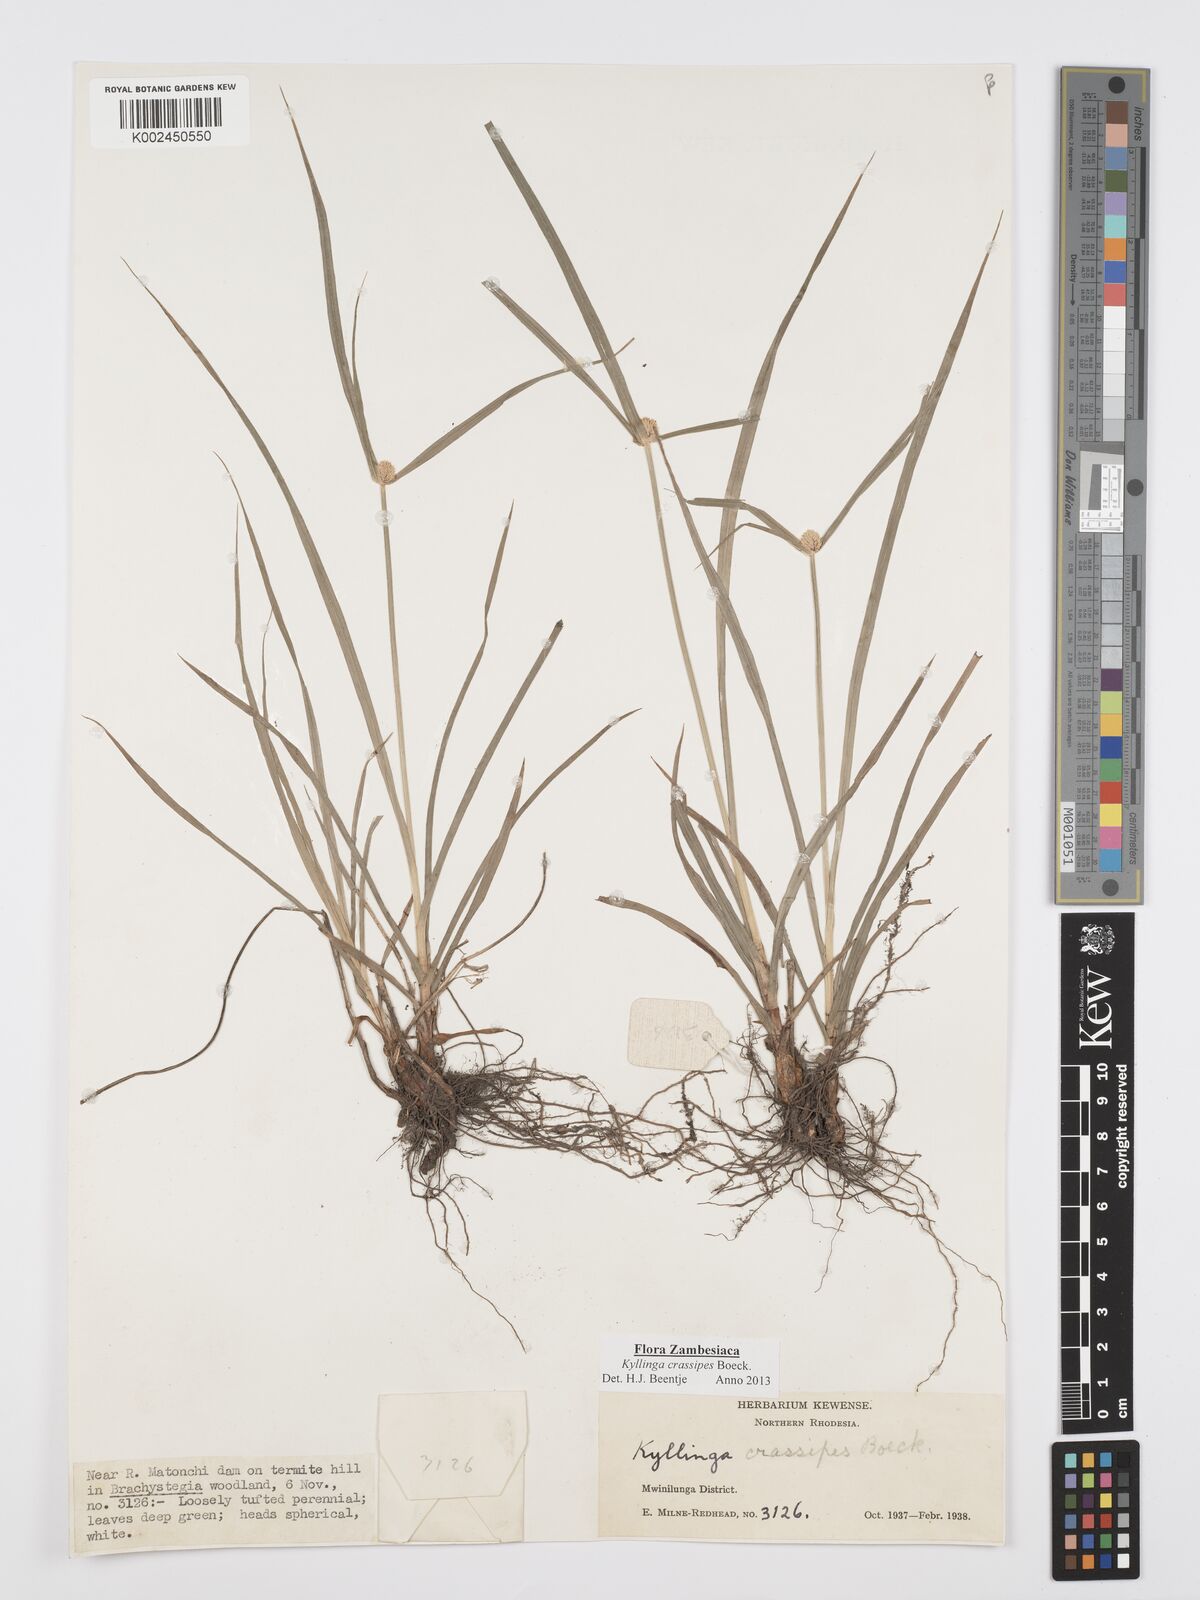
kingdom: Plantae
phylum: Tracheophyta
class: Liliopsida
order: Poales
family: Cyperaceae
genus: Cyperus
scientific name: Cyperus crassipes
